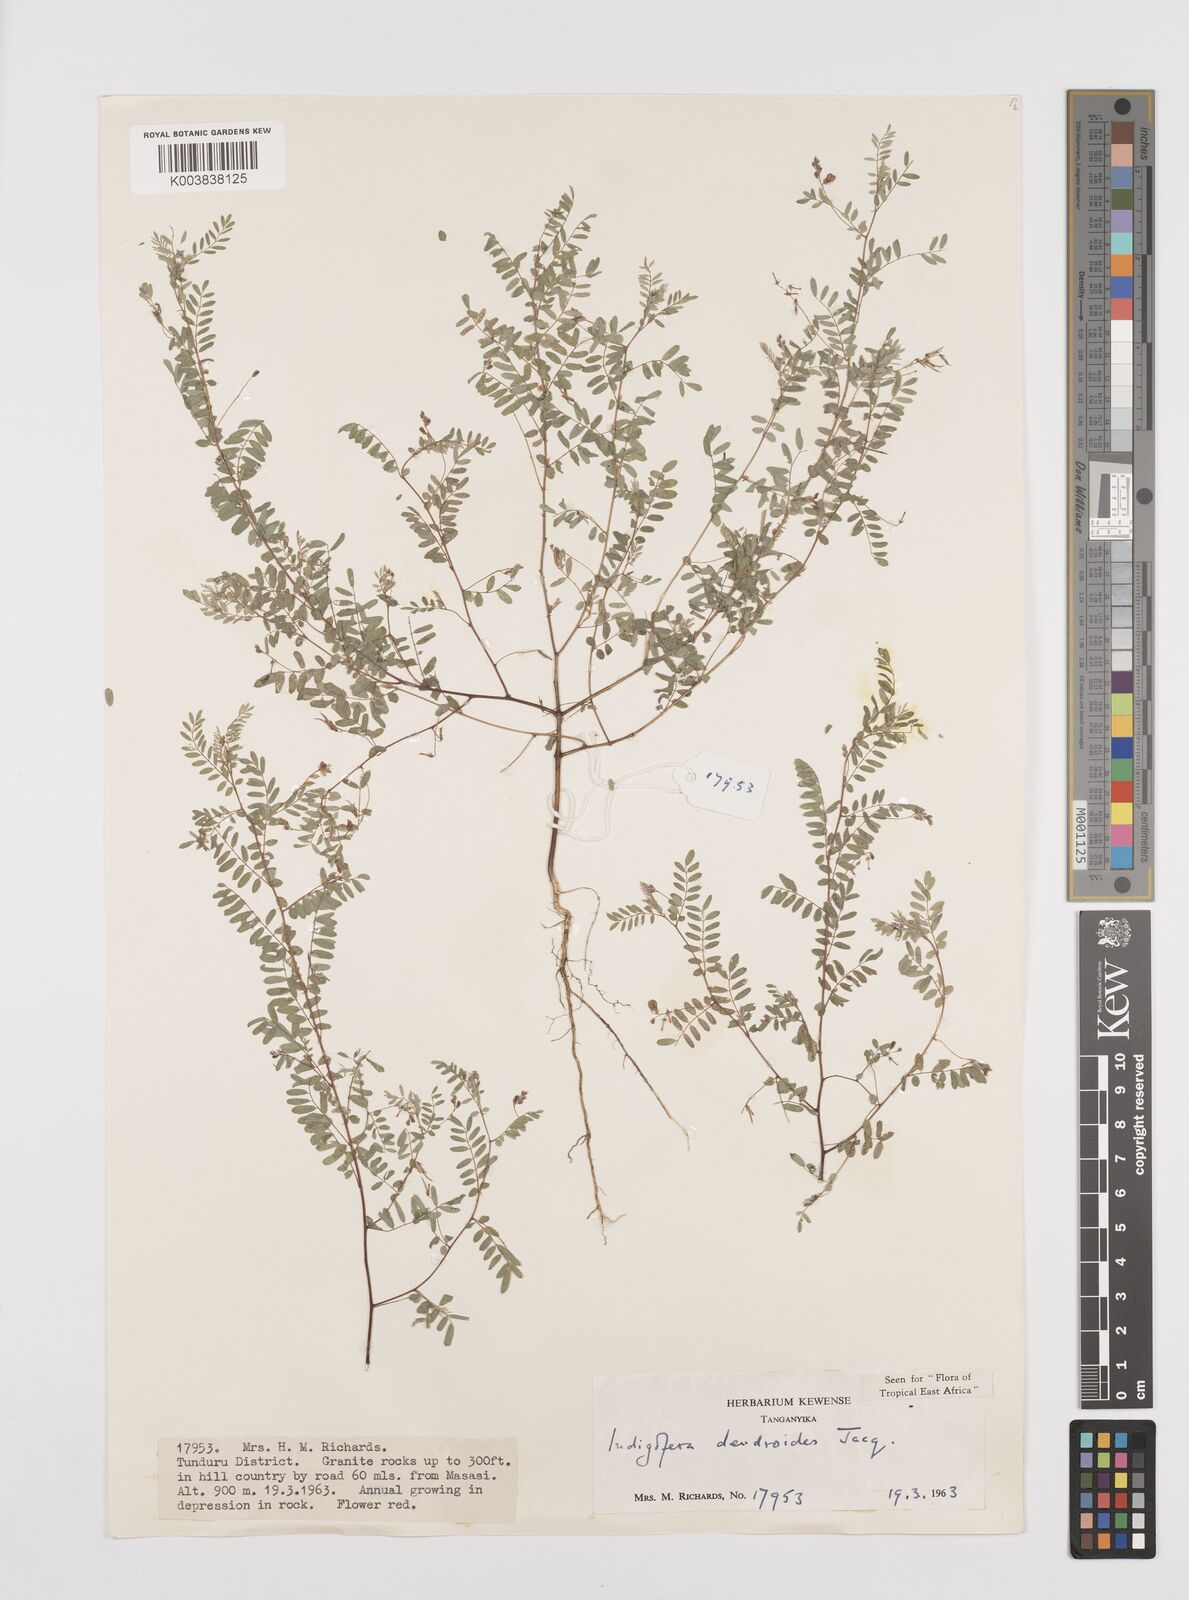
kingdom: Plantae
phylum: Tracheophyta
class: Magnoliopsida
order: Fabales
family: Fabaceae
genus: Indigofera
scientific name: Indigofera dendroides
